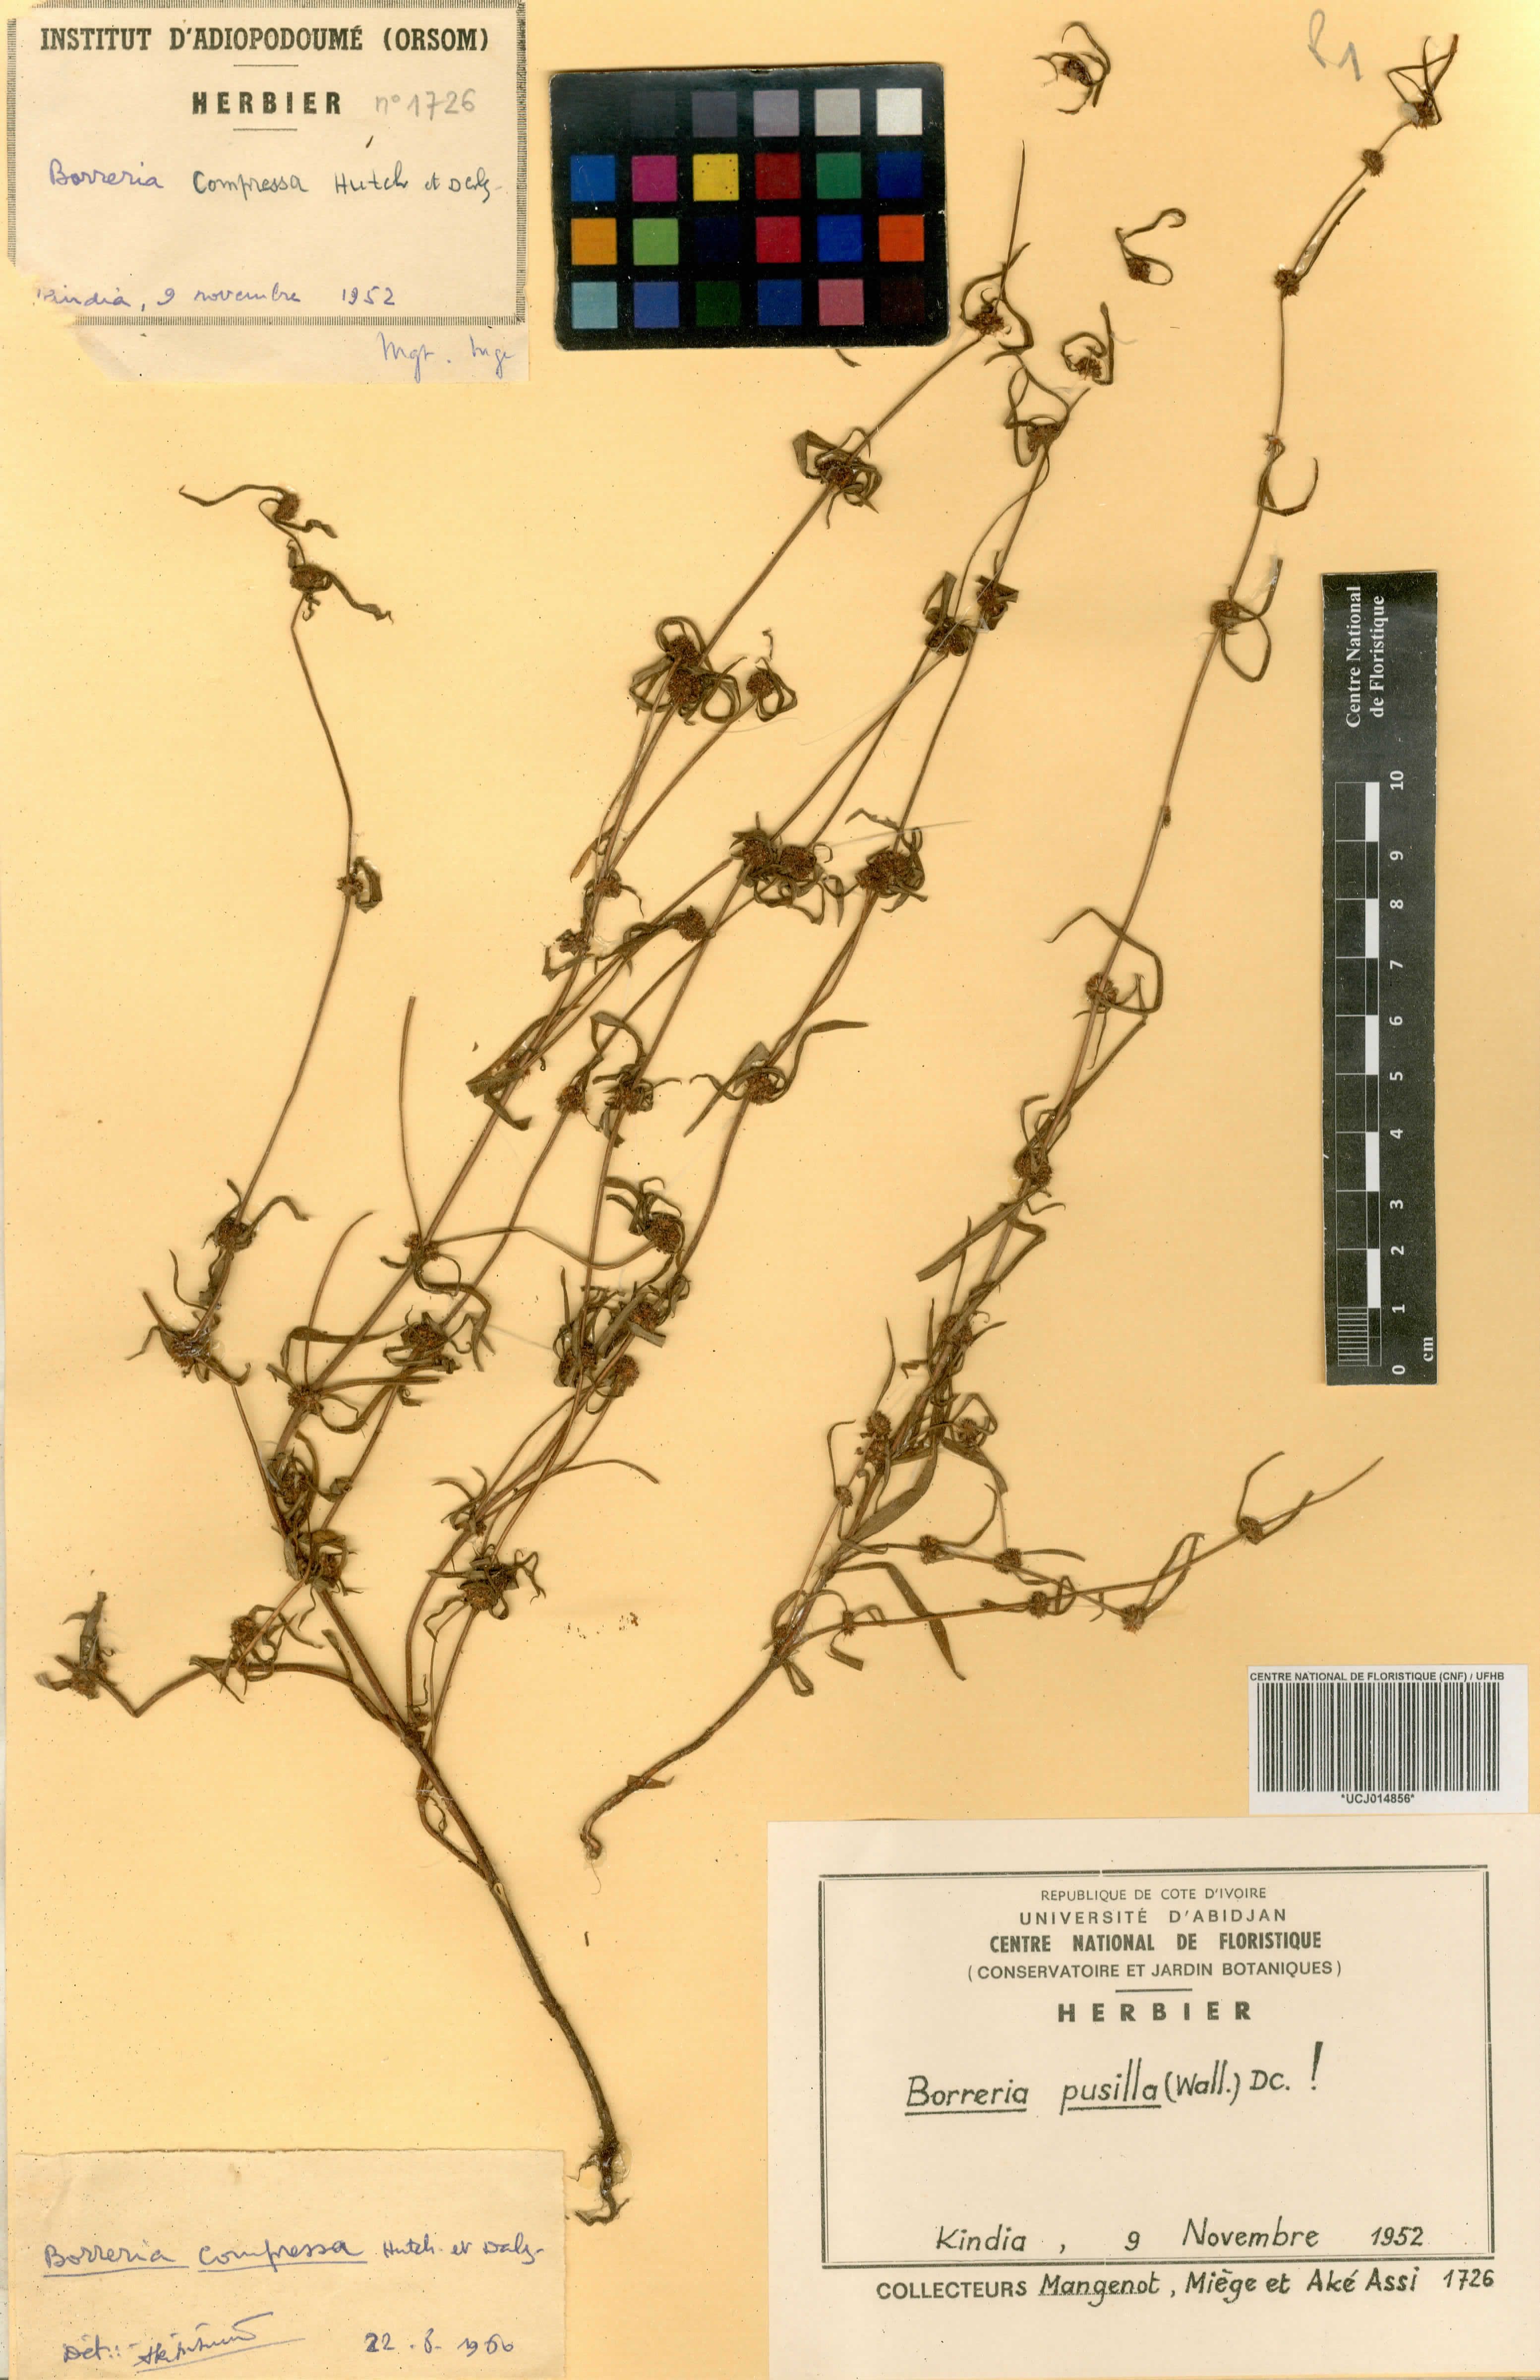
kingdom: Plantae
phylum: Tracheophyta
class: Magnoliopsida
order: Gentianales
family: Rubiaceae
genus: Spermacoce
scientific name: Spermacoce pusilla
